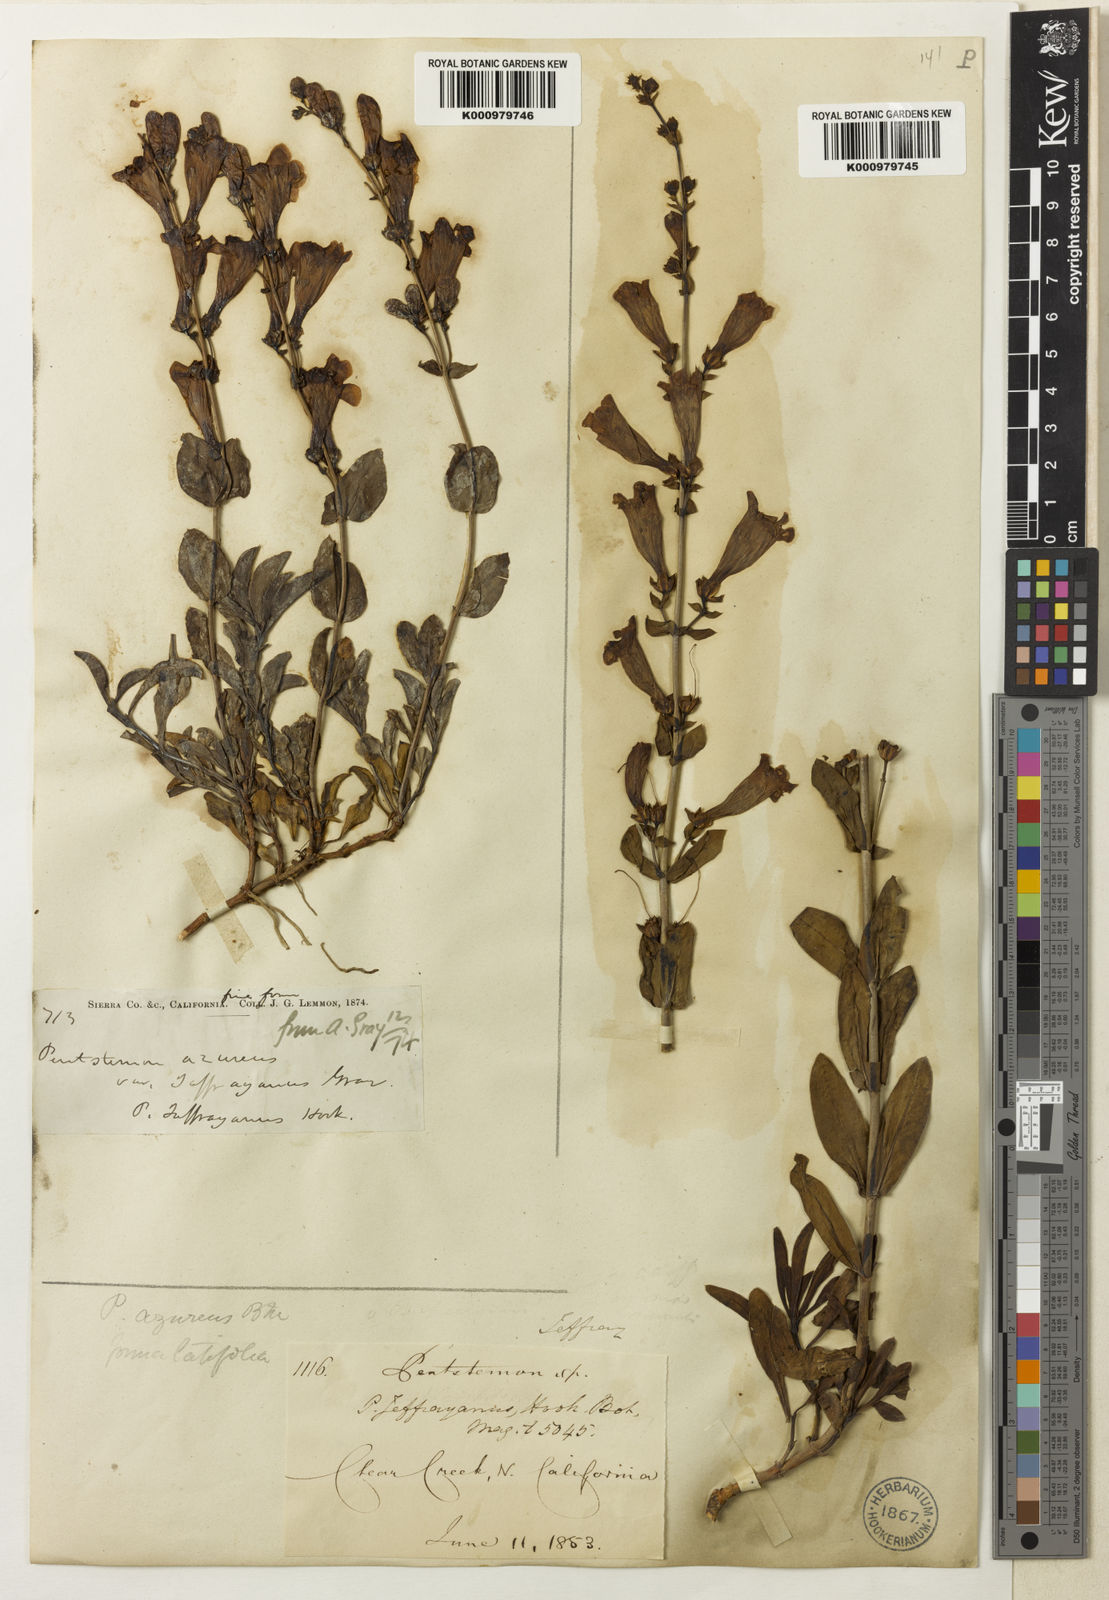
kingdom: Plantae
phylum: Tracheophyta
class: Magnoliopsida
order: Lamiales
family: Plantaginaceae
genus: Penstemon
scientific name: Penstemon azureus
